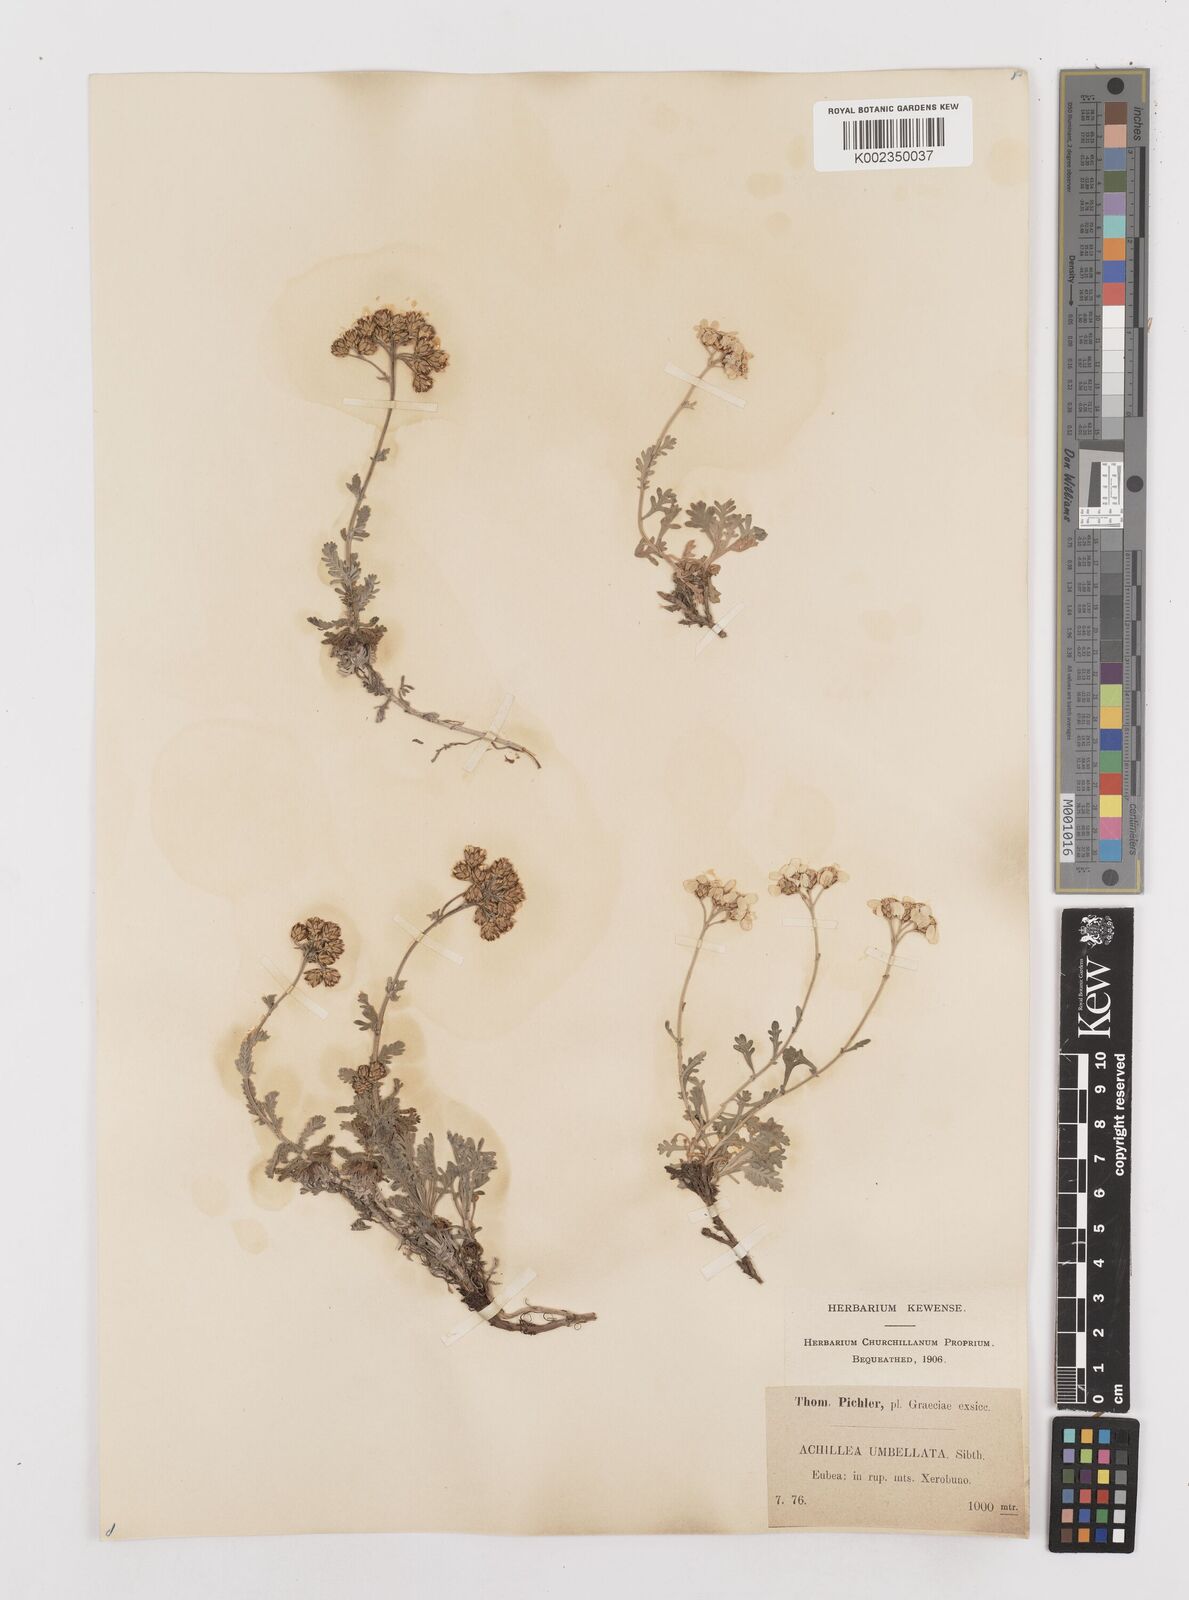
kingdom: Plantae
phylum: Tracheophyta
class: Magnoliopsida
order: Asterales
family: Asteraceae
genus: Achillea
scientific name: Achillea umbellata
